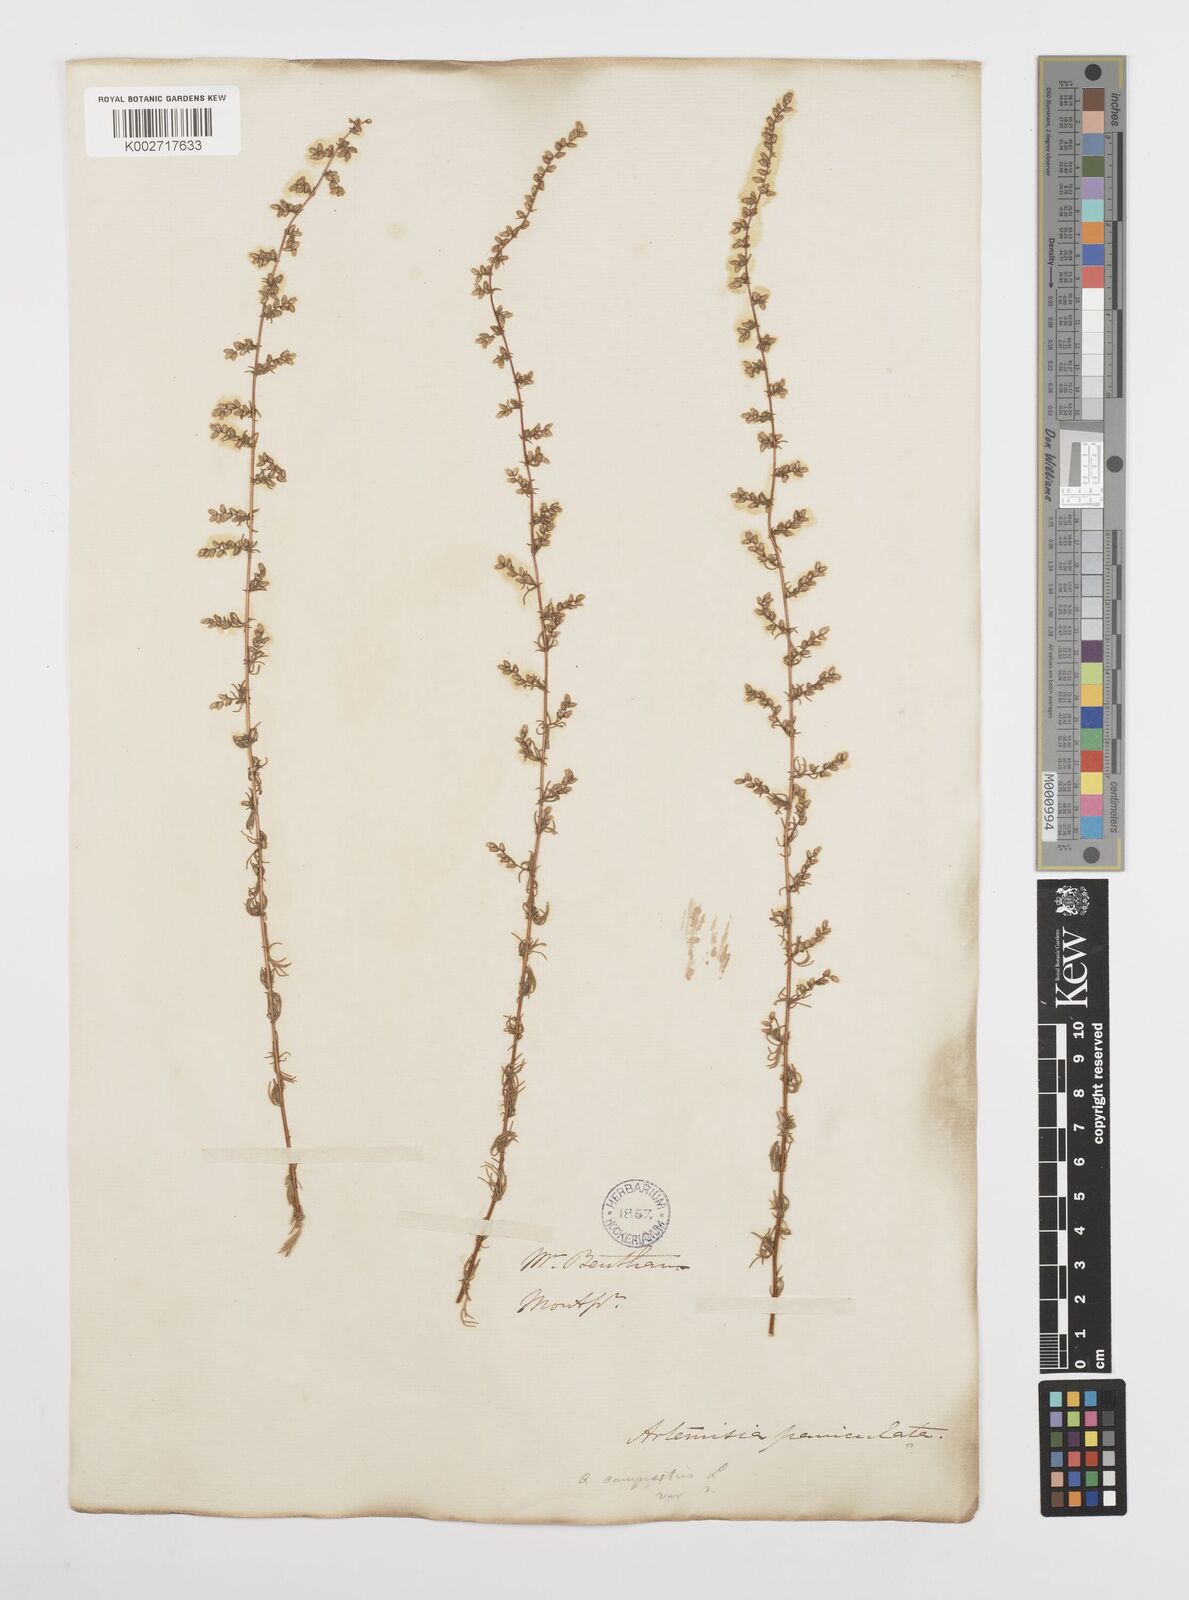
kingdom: Plantae
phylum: Tracheophyta
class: Magnoliopsida
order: Asterales
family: Asteraceae
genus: Artemisia
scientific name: Artemisia campestris
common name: Field wormwood
